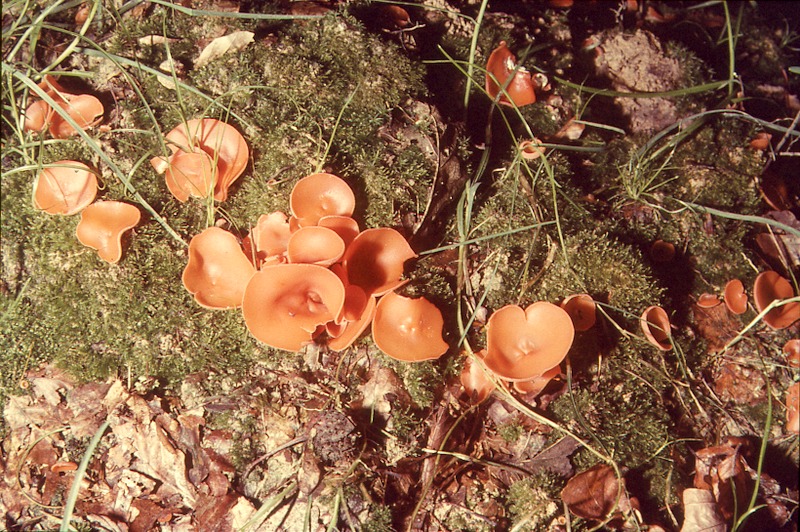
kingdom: Fungi
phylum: Ascomycota
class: Pezizomycetes
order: Pezizales
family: Pyronemataceae
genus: Aleuria
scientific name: Aleuria aurantia
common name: Orange peel fungus
